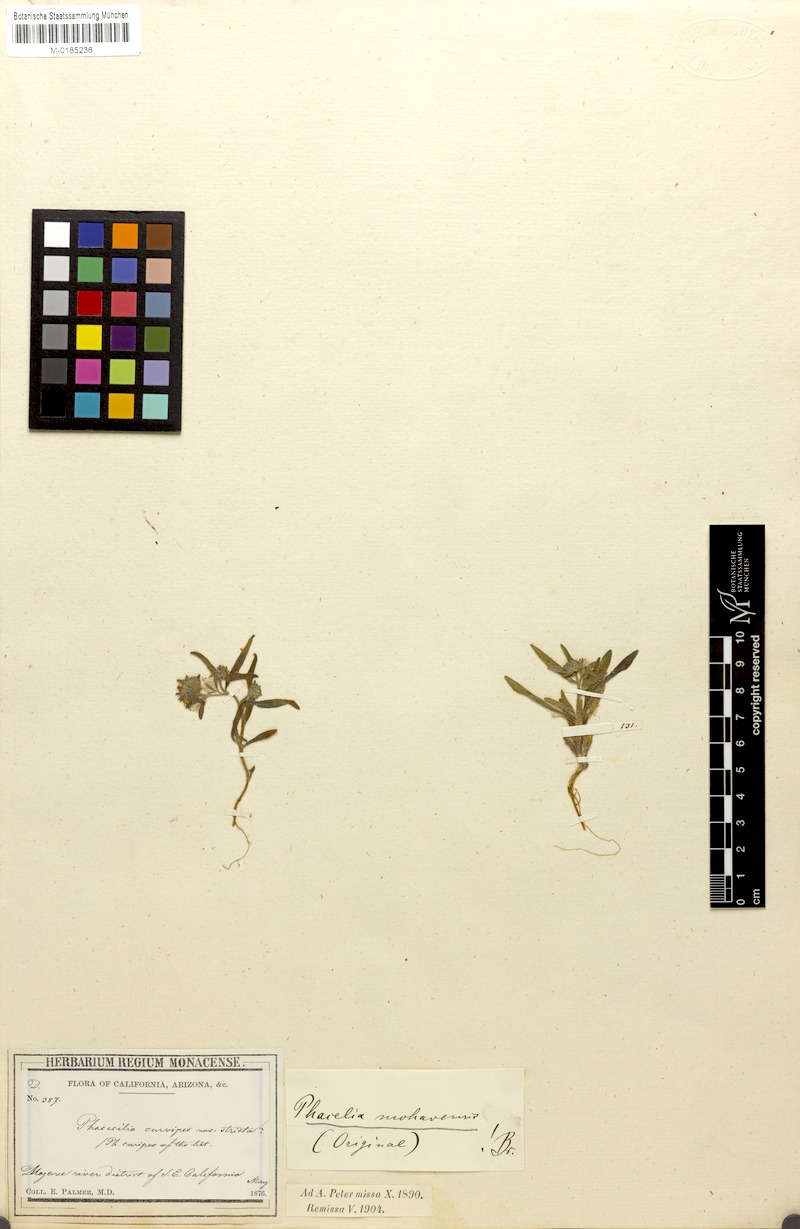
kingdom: Plantae
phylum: Tracheophyta
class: Magnoliopsida
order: Boraginales
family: Hydrophyllaceae
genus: Phacelia
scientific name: Phacelia mohavensis
